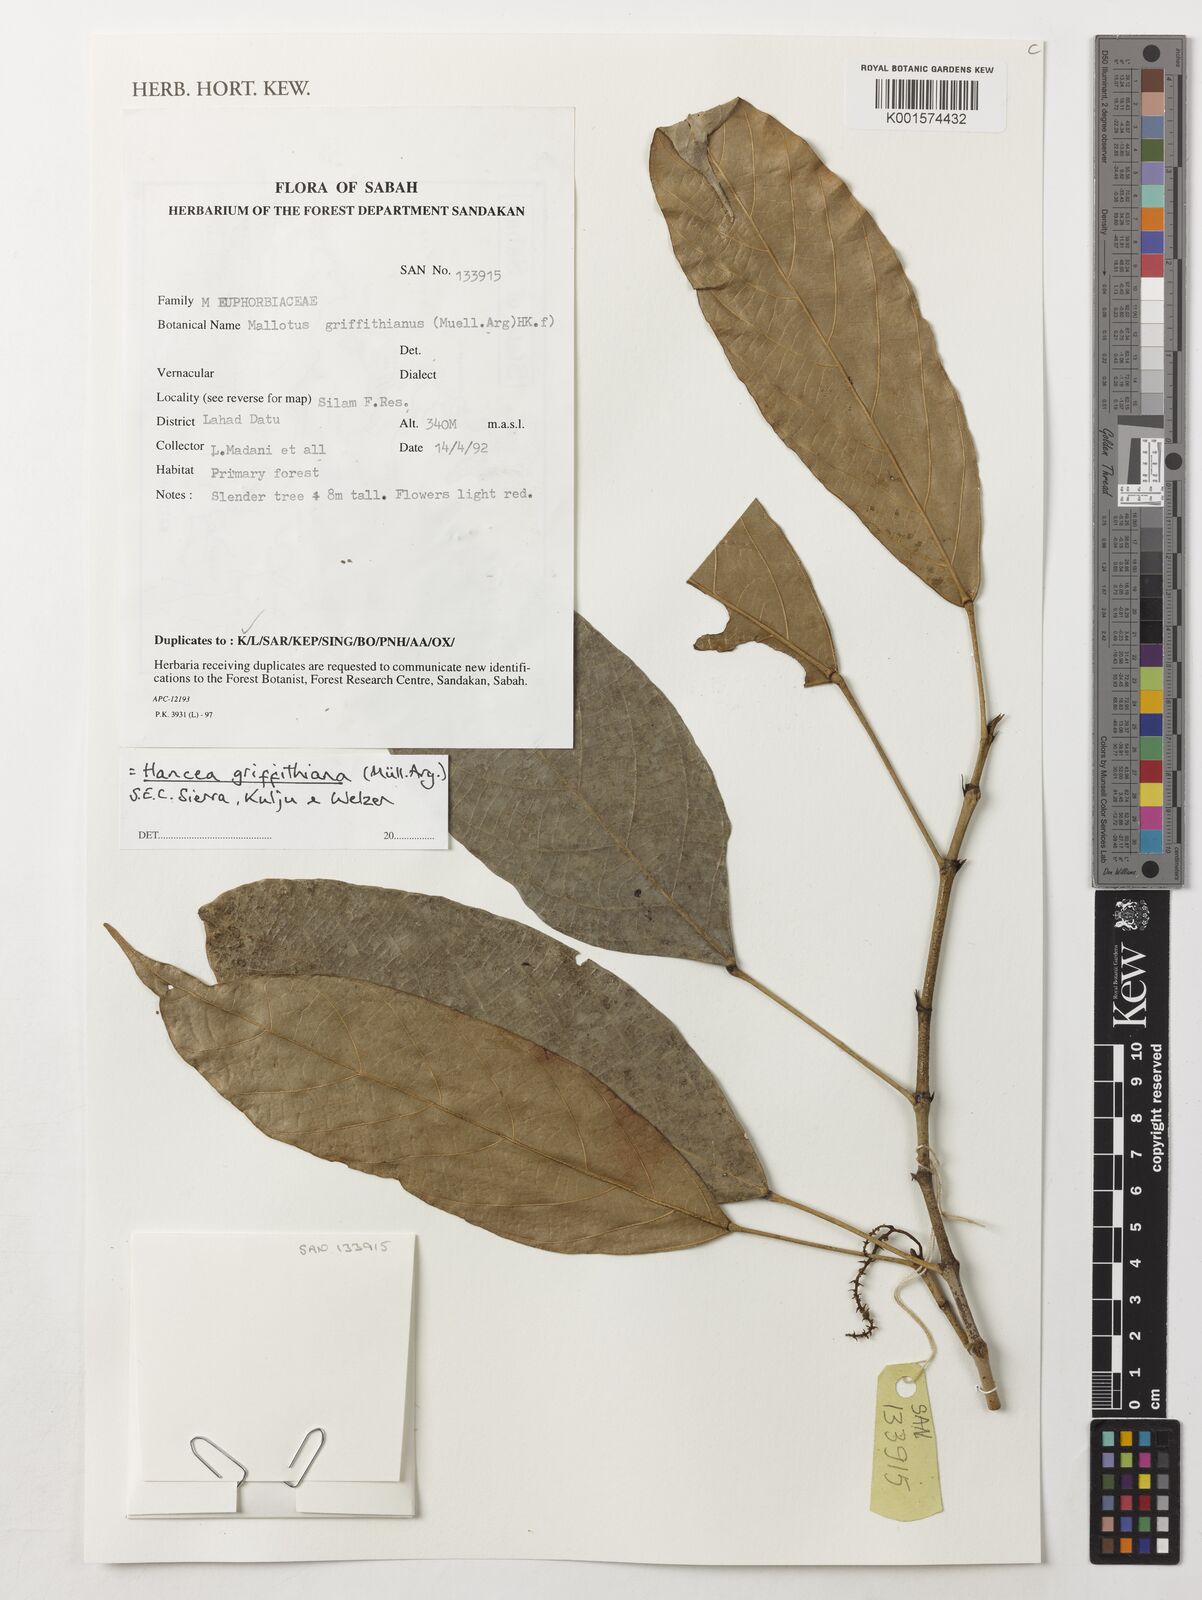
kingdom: Plantae
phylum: Tracheophyta
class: Magnoliopsida
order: Malpighiales
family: Euphorbiaceae
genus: Hancea
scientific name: Hancea griffithiana
